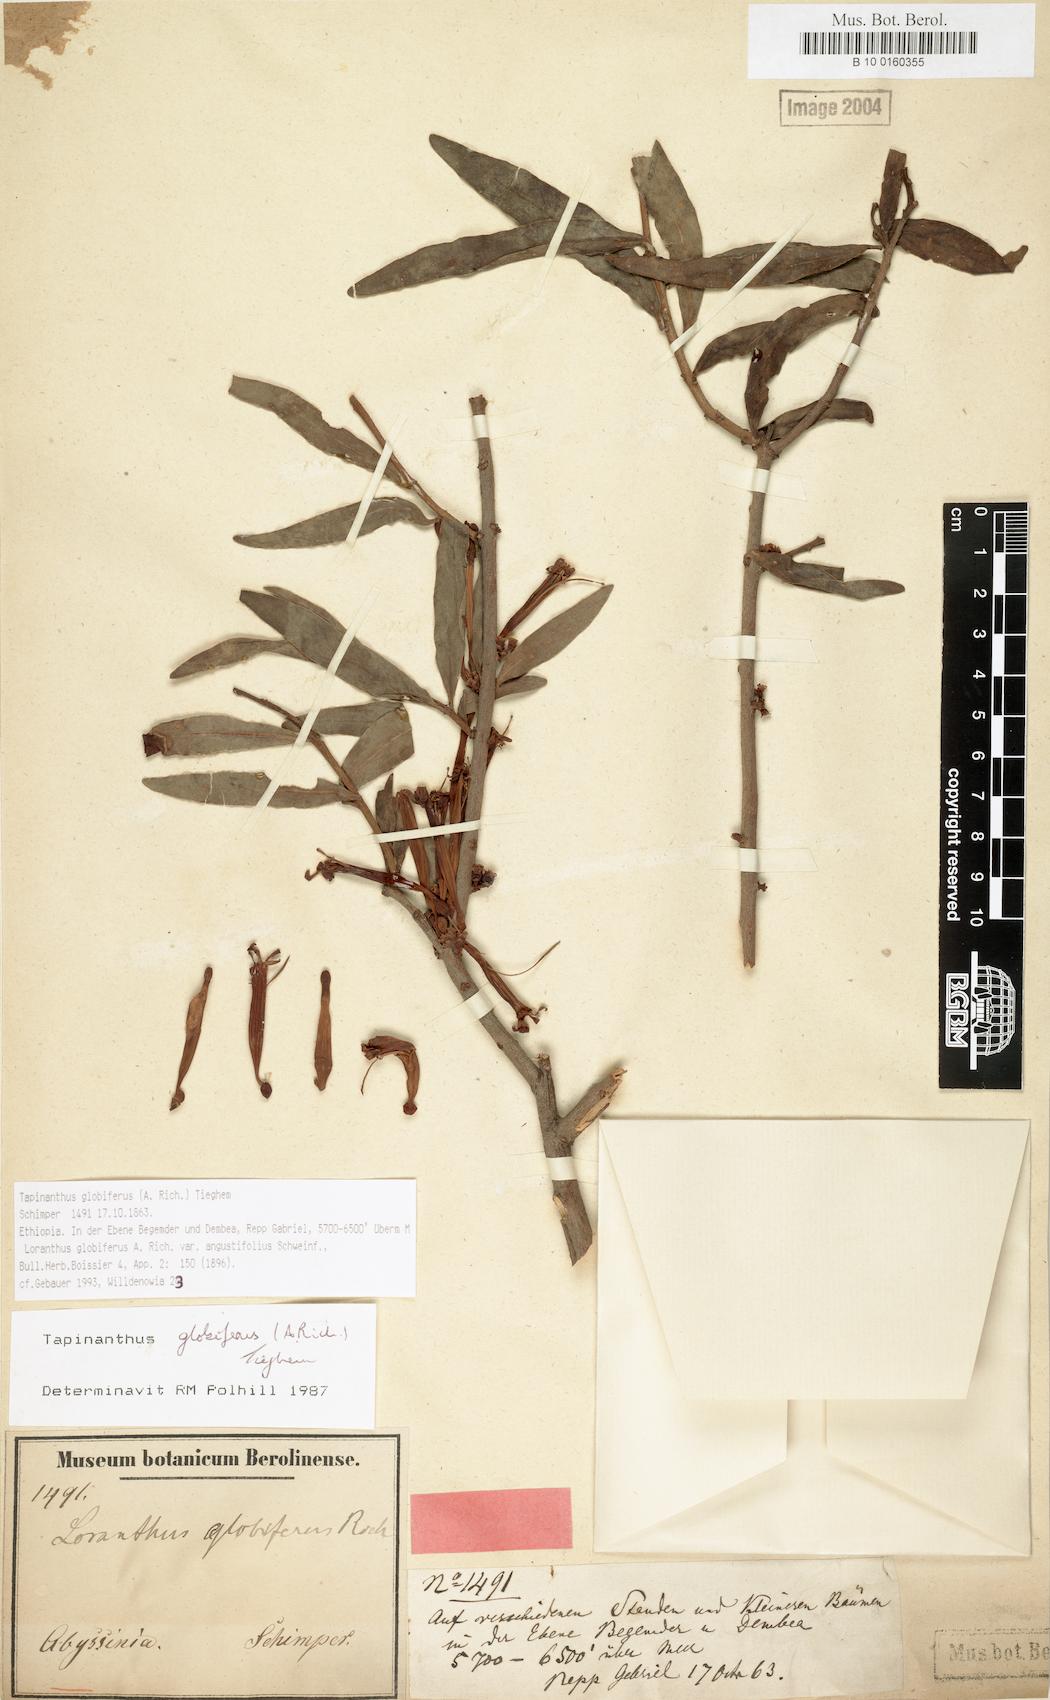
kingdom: Plantae
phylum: Tracheophyta
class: Magnoliopsida
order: Santalales
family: Loranthaceae
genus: Tapinanthus
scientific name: Tapinanthus globiferus
